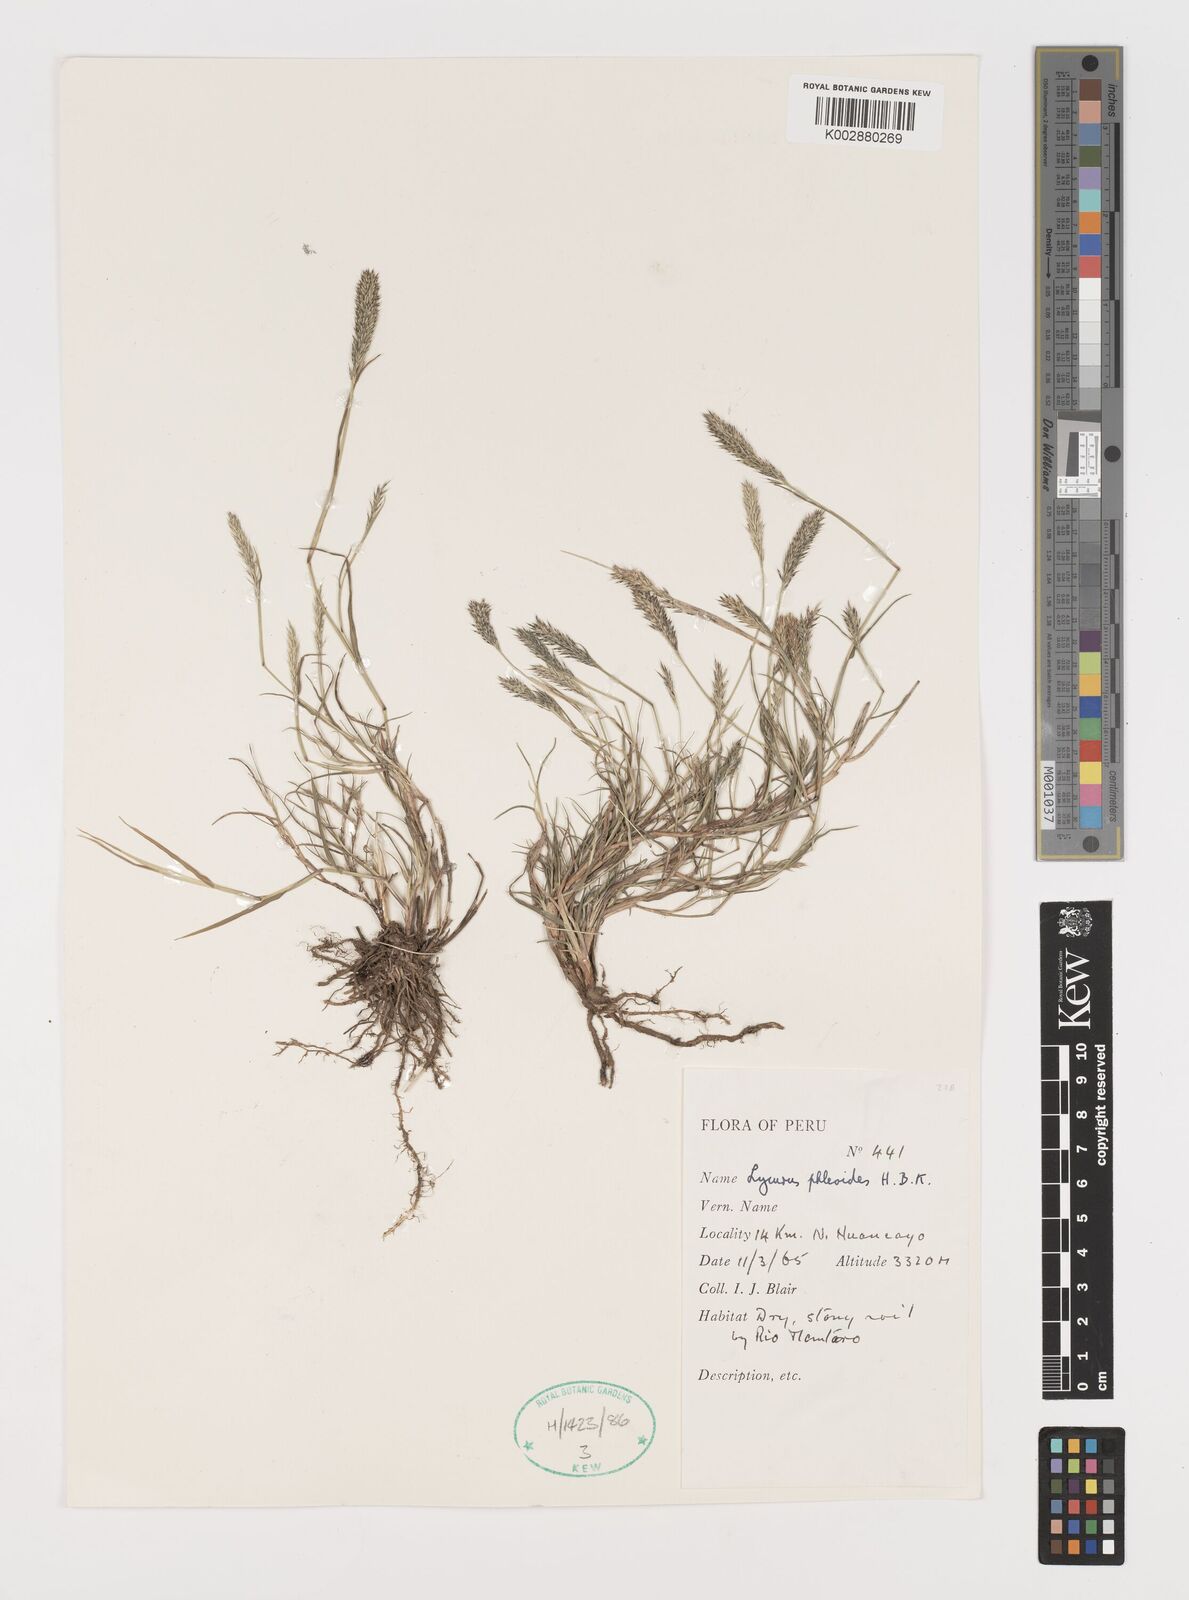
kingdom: Plantae
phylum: Tracheophyta
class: Liliopsida
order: Poales
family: Poaceae
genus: Muhlenbergia
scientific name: Muhlenbergia phalaroides
